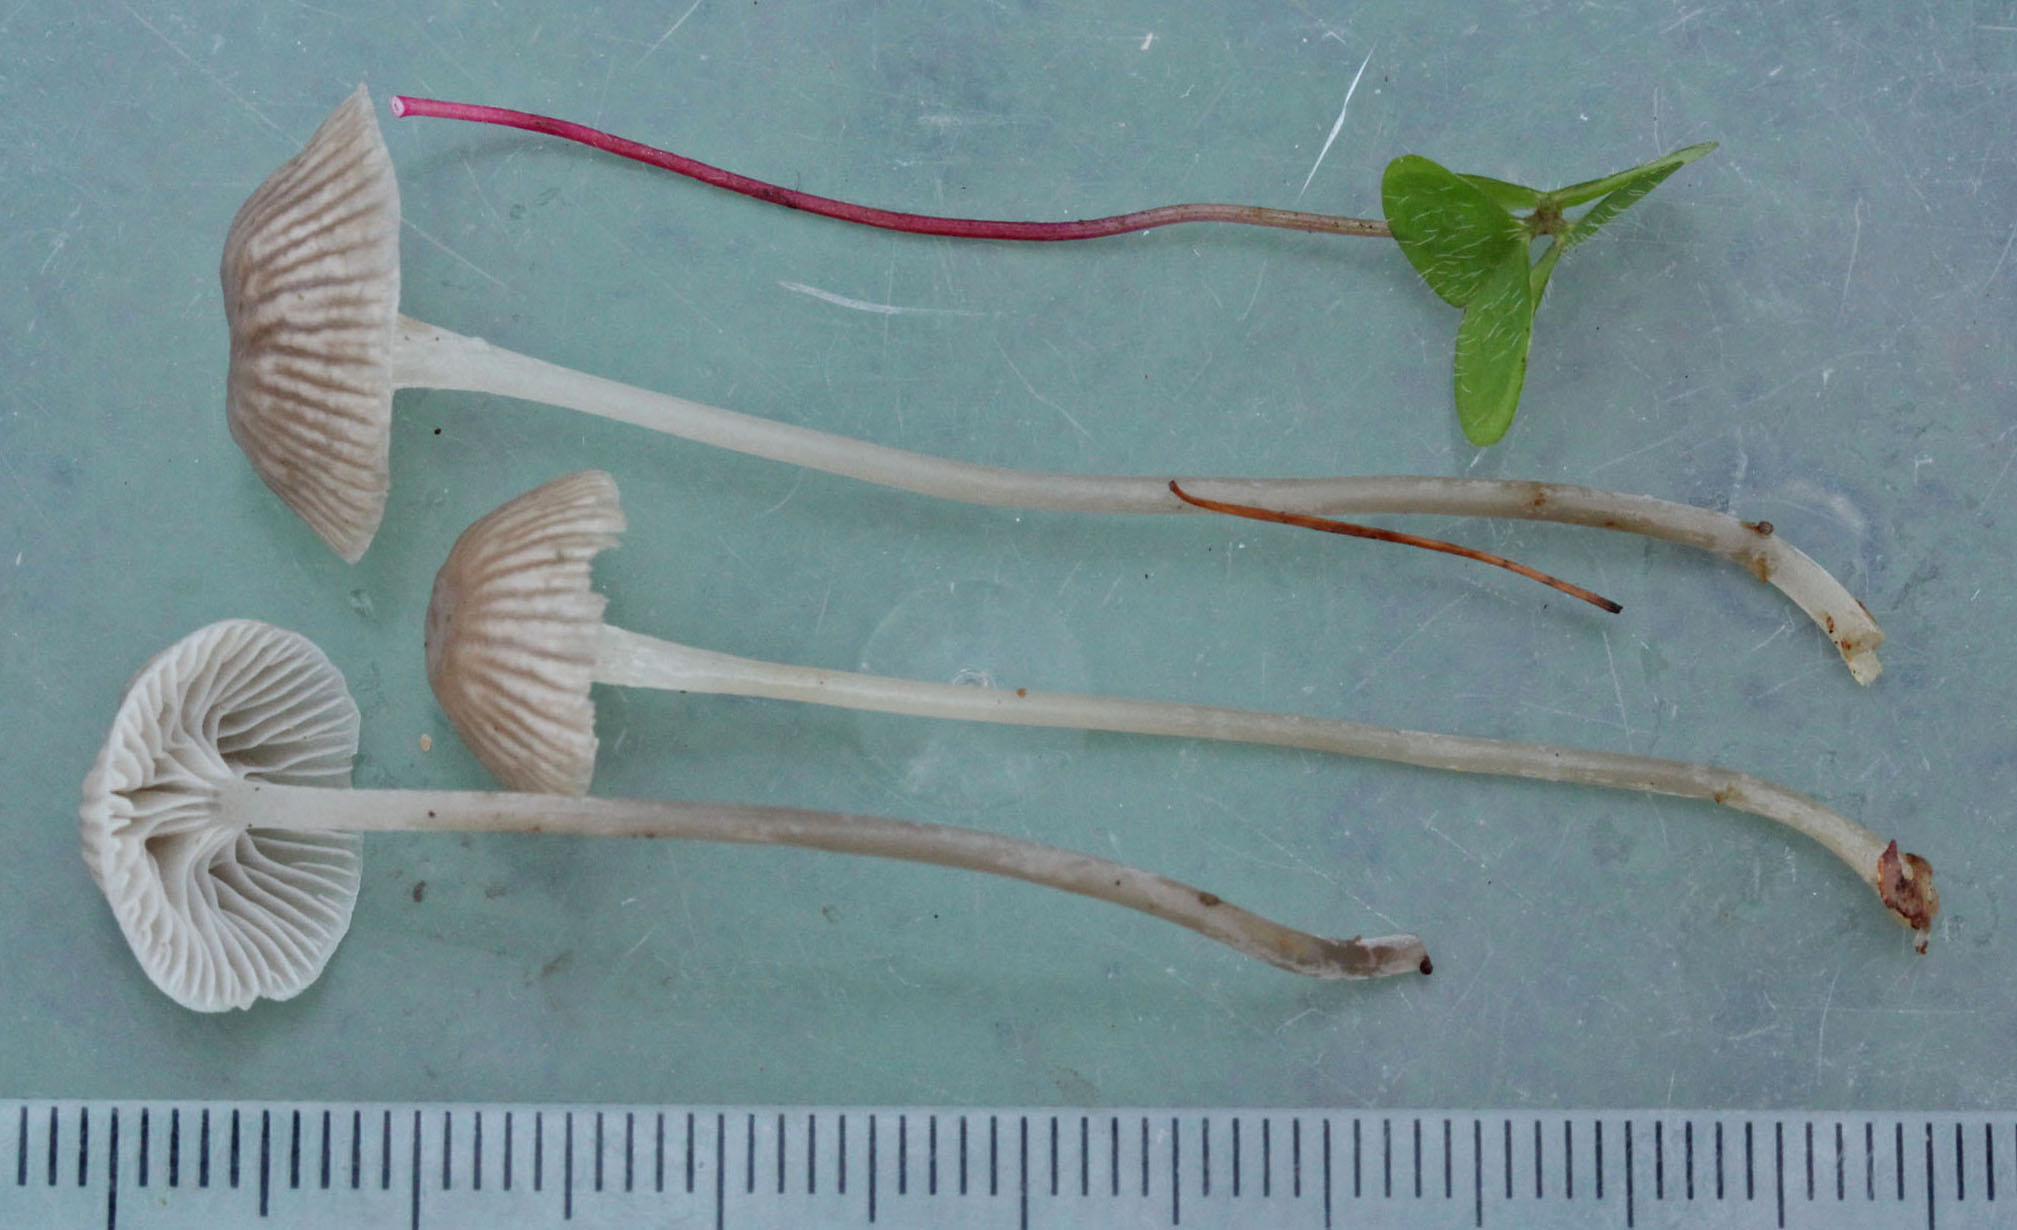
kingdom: Fungi
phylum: Basidiomycota
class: Agaricomycetes
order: Agaricales
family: Mycenaceae
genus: Mycena
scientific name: Mycena cinerella
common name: mel-huesvamp
